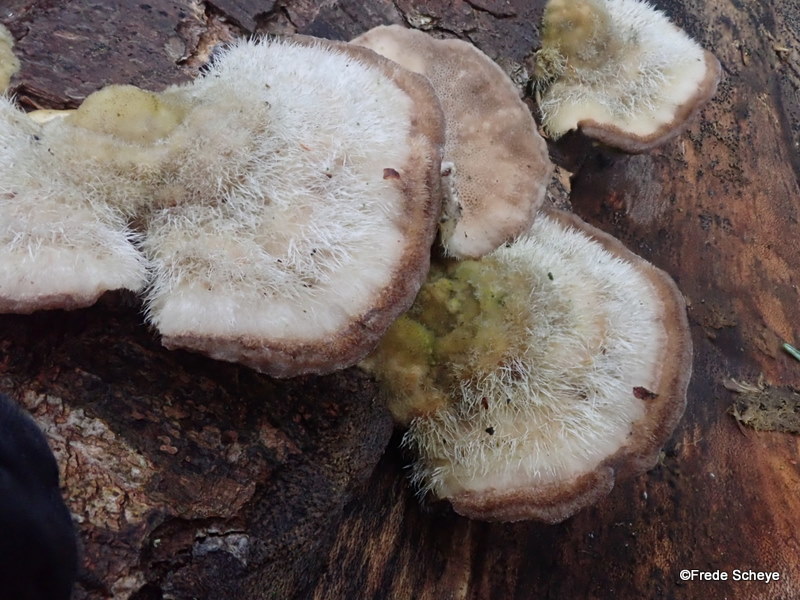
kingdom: Fungi
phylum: Basidiomycota
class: Agaricomycetes
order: Polyporales
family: Polyporaceae
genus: Trametes
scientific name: Trametes hirsuta
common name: håret læderporesvamp
